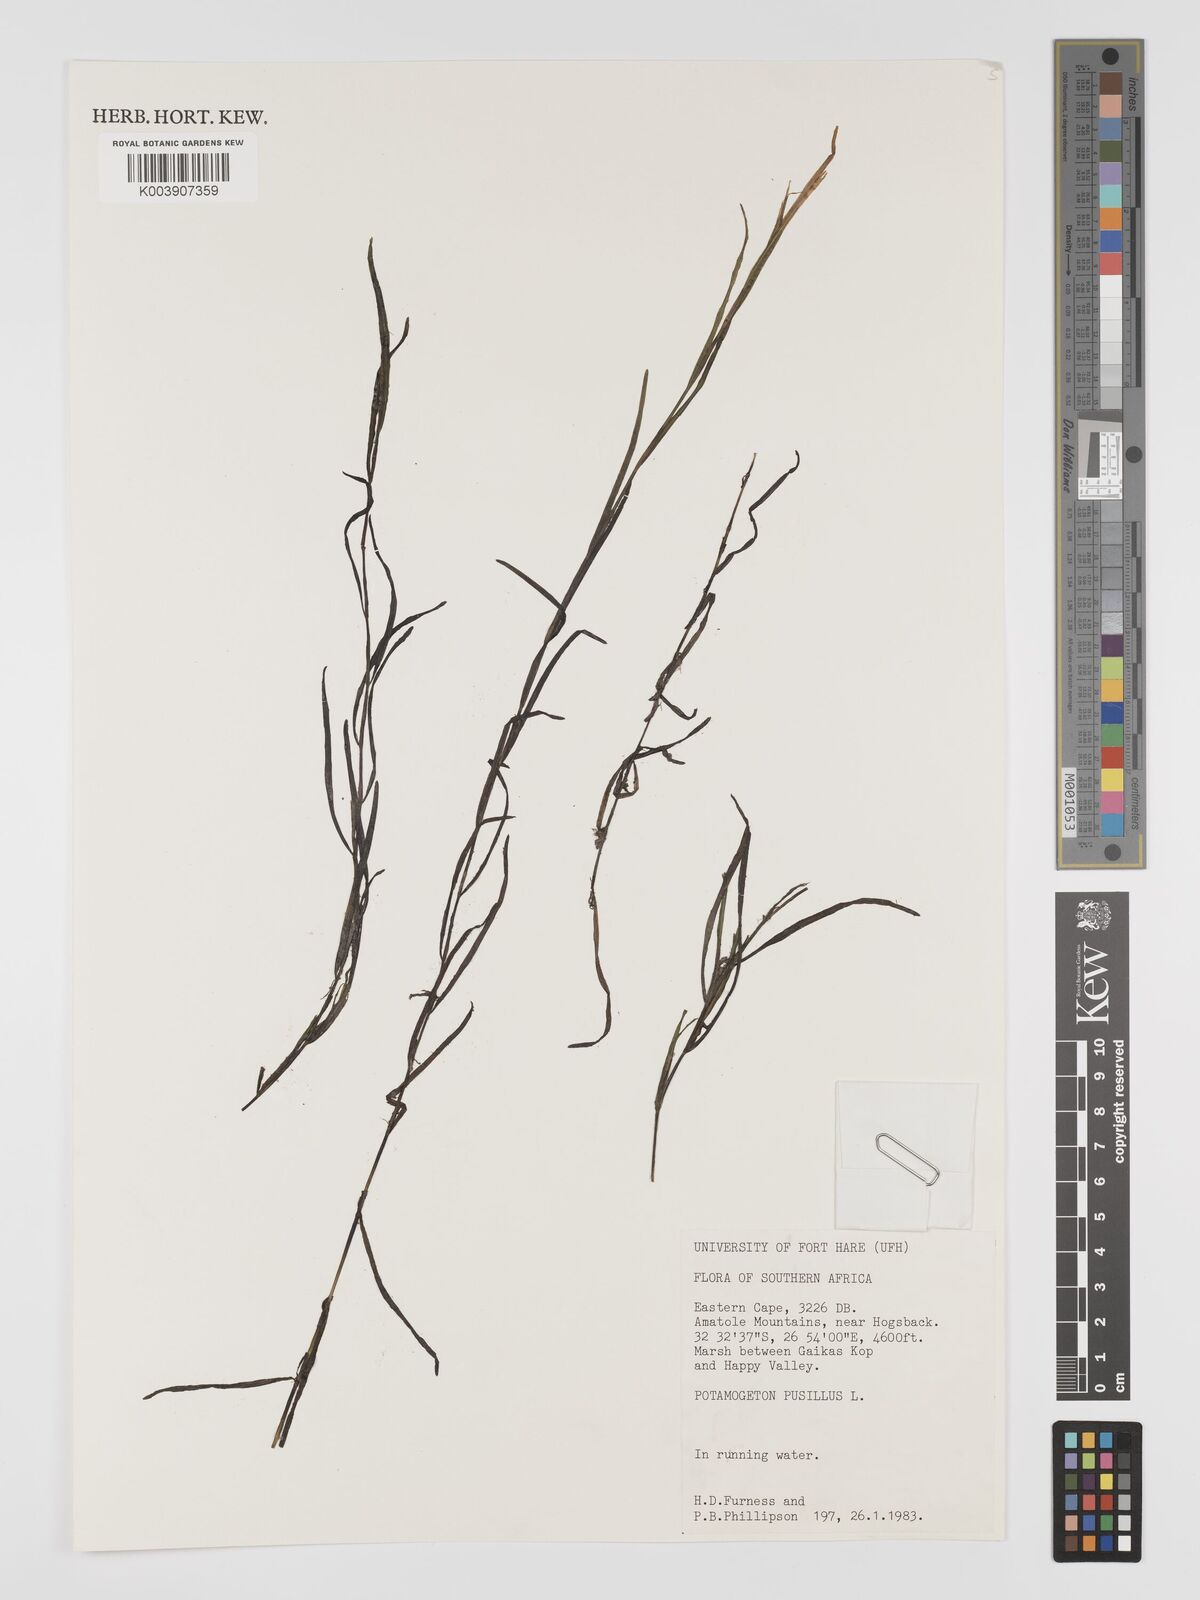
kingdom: Plantae
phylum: Tracheophyta
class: Liliopsida
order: Alismatales
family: Potamogetonaceae
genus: Potamogeton
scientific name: Potamogeton pusillus
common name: Lesser pondweed
